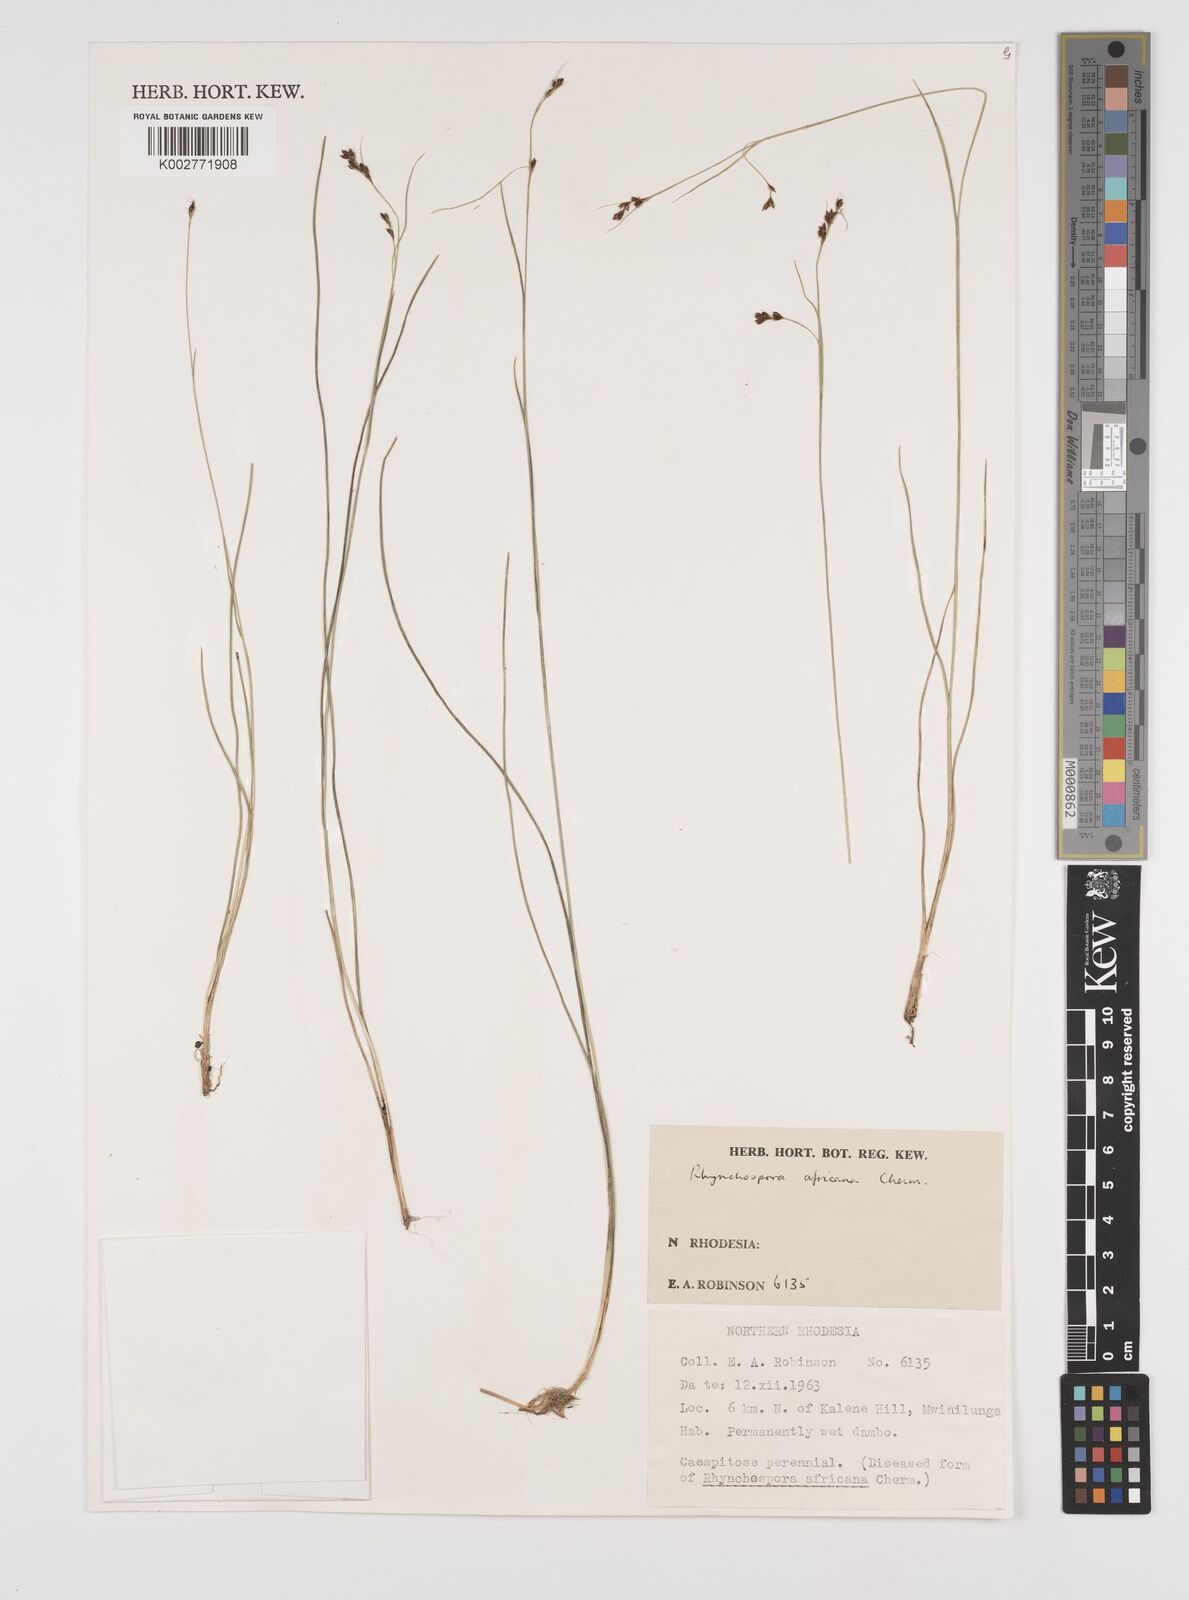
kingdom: Plantae
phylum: Tracheophyta
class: Liliopsida
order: Poales
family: Cyperaceae
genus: Rhynchospora
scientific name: Rhynchospora angolensis
